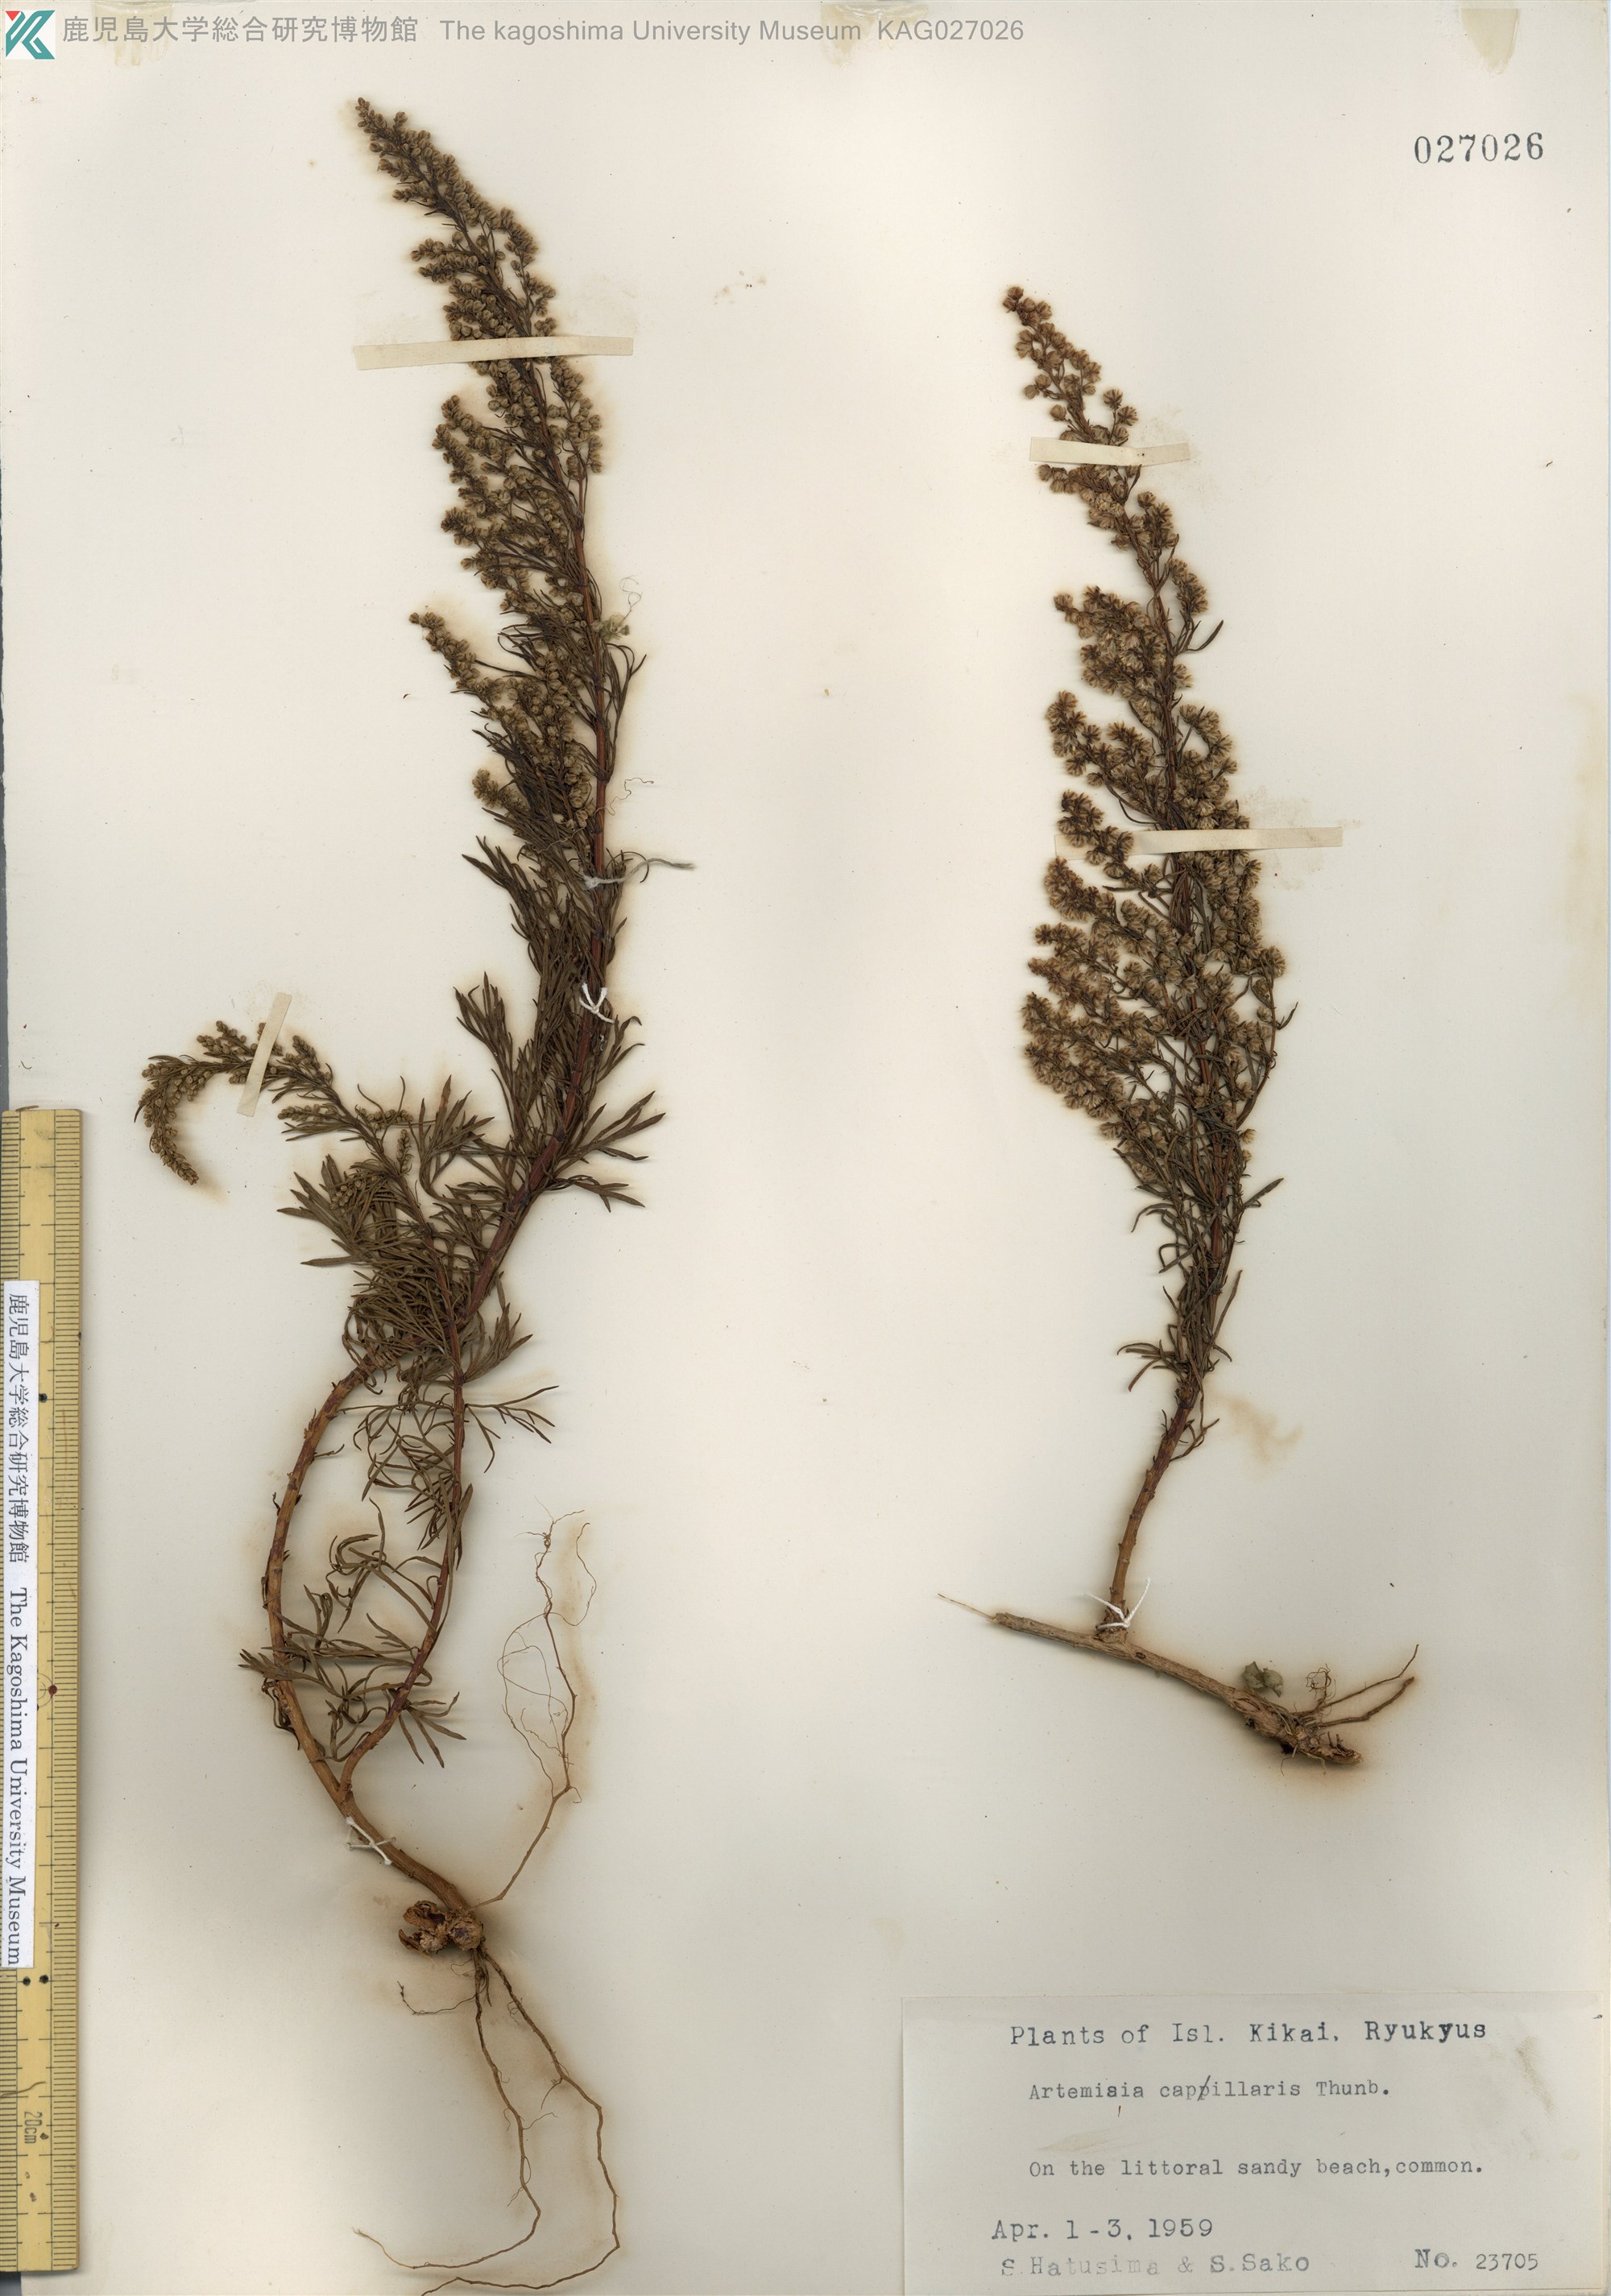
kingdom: Plantae
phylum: Tracheophyta
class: Magnoliopsida
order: Asterales
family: Asteraceae
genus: Artemisia
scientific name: Artemisia capillaris
